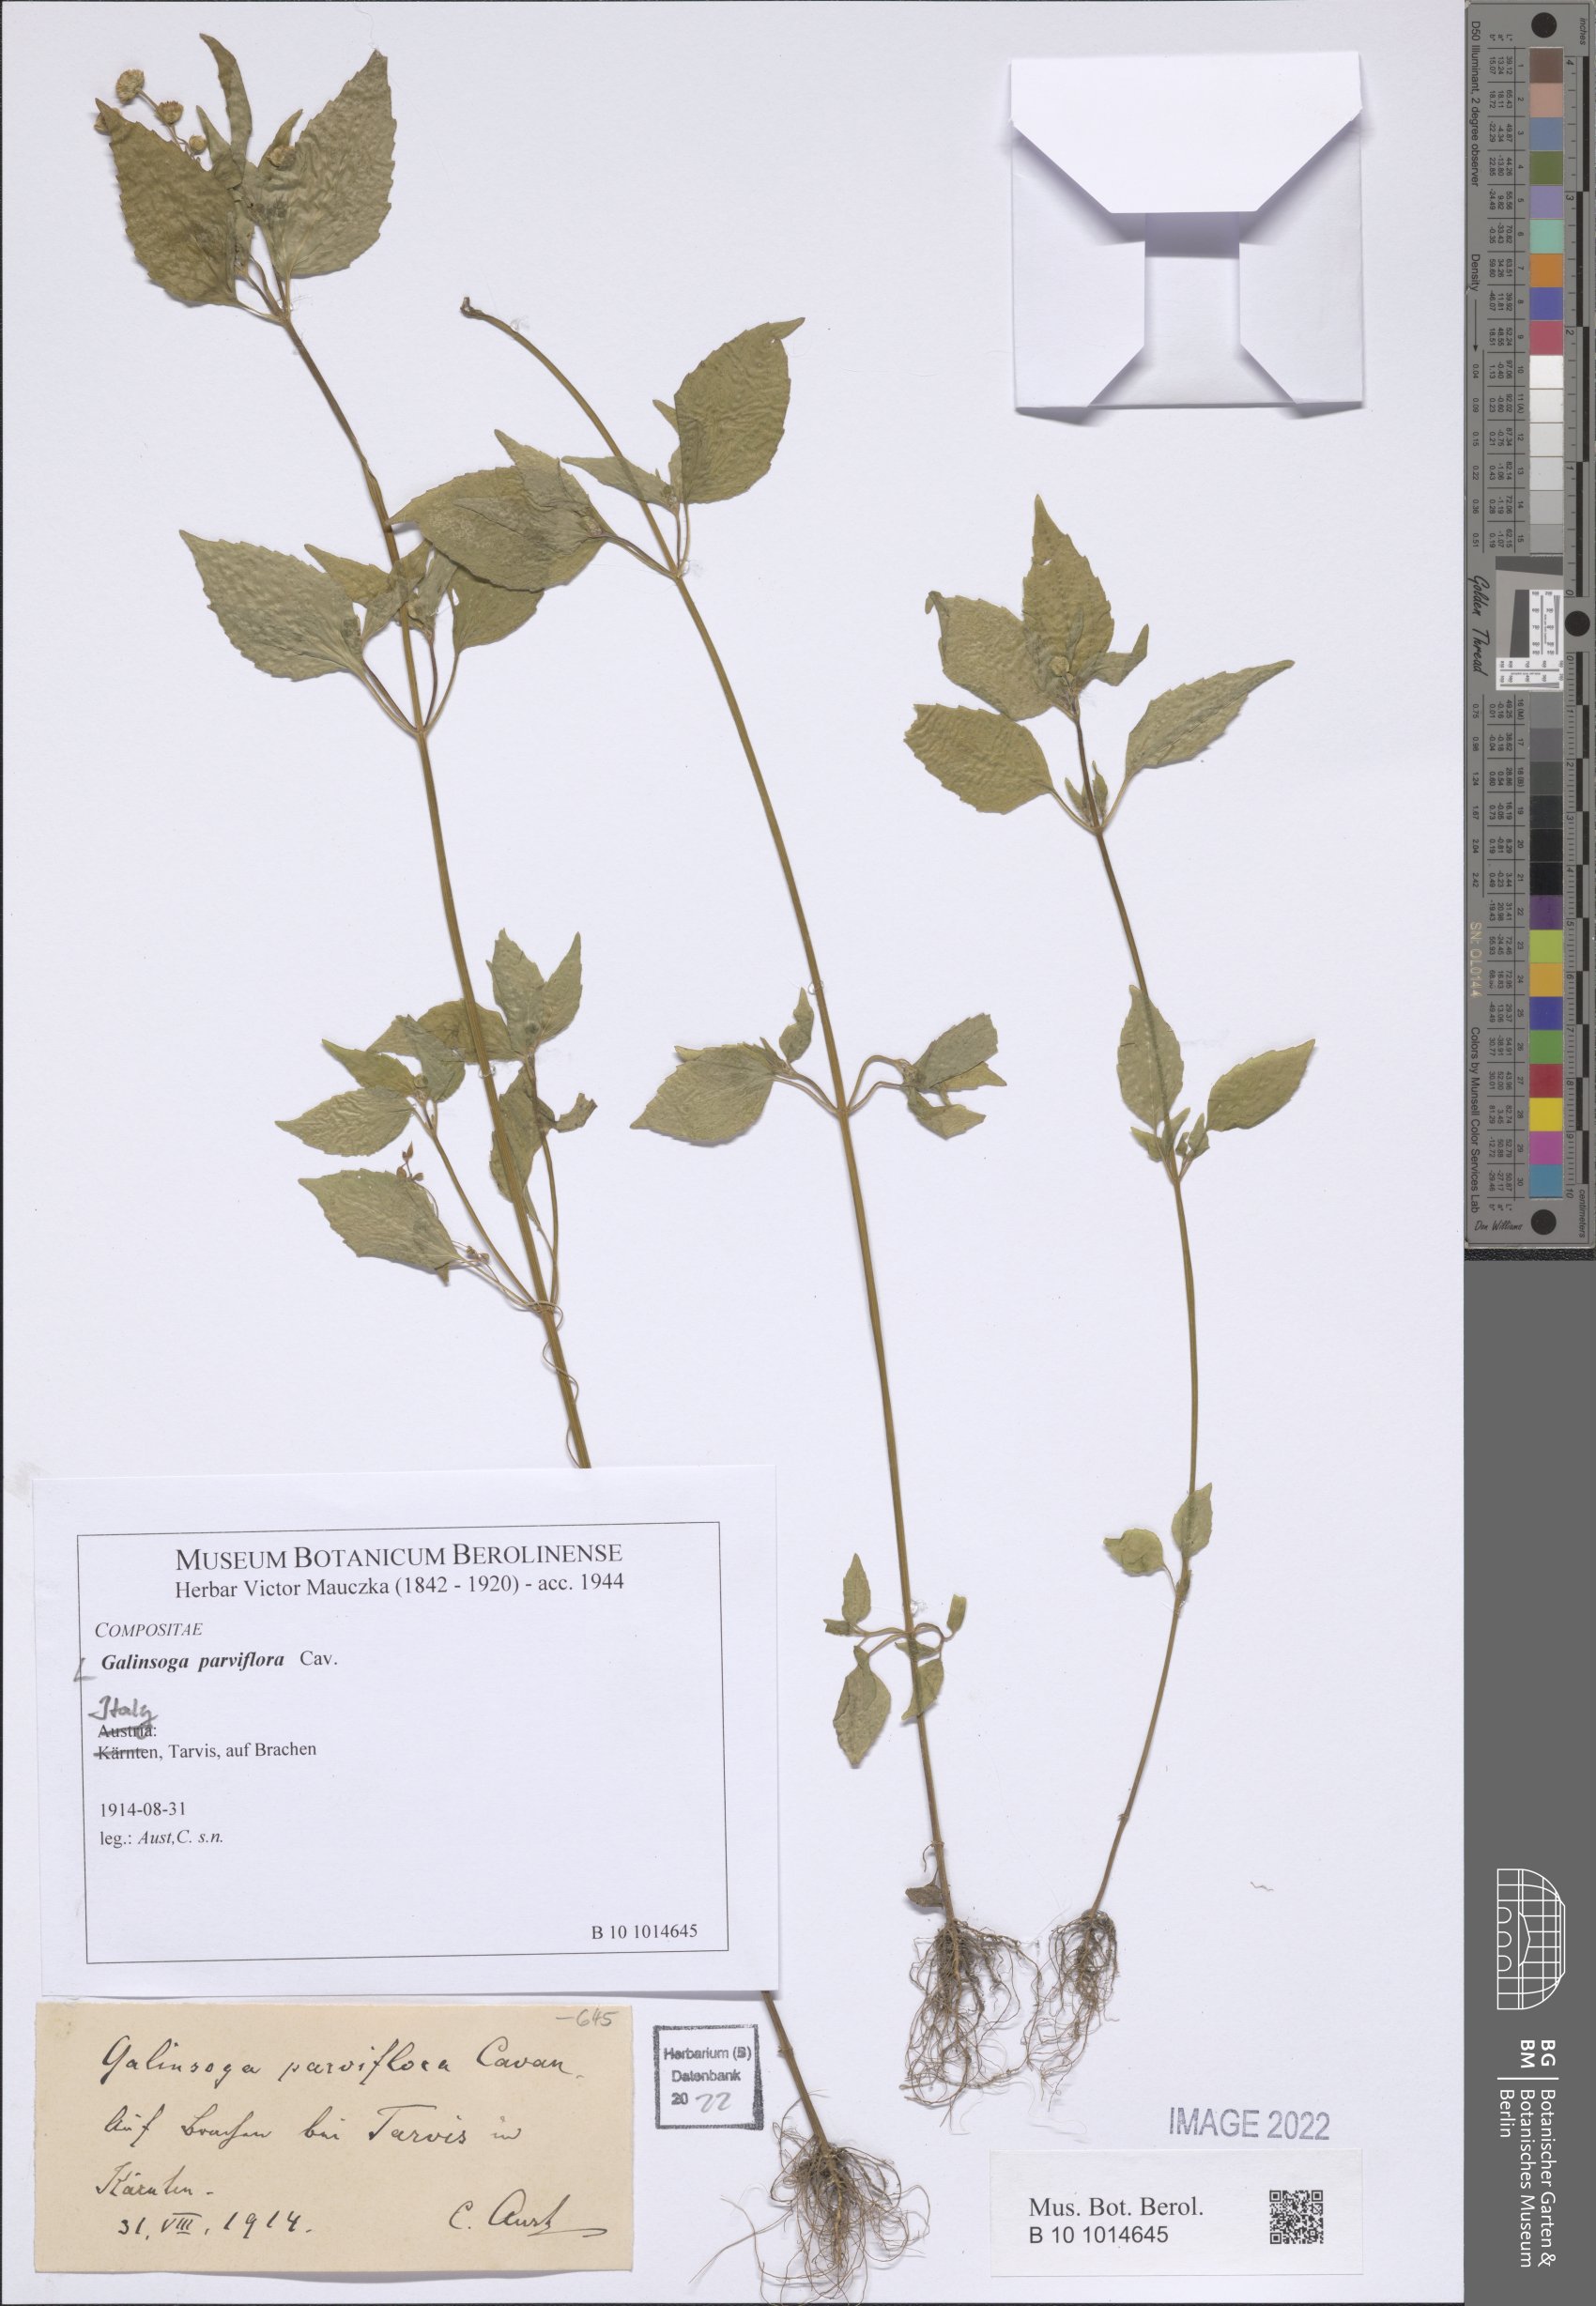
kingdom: Plantae
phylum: Tracheophyta
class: Magnoliopsida
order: Asterales
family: Asteraceae
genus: Galinsoga
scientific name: Galinsoga parviflora
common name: Gallant soldier
